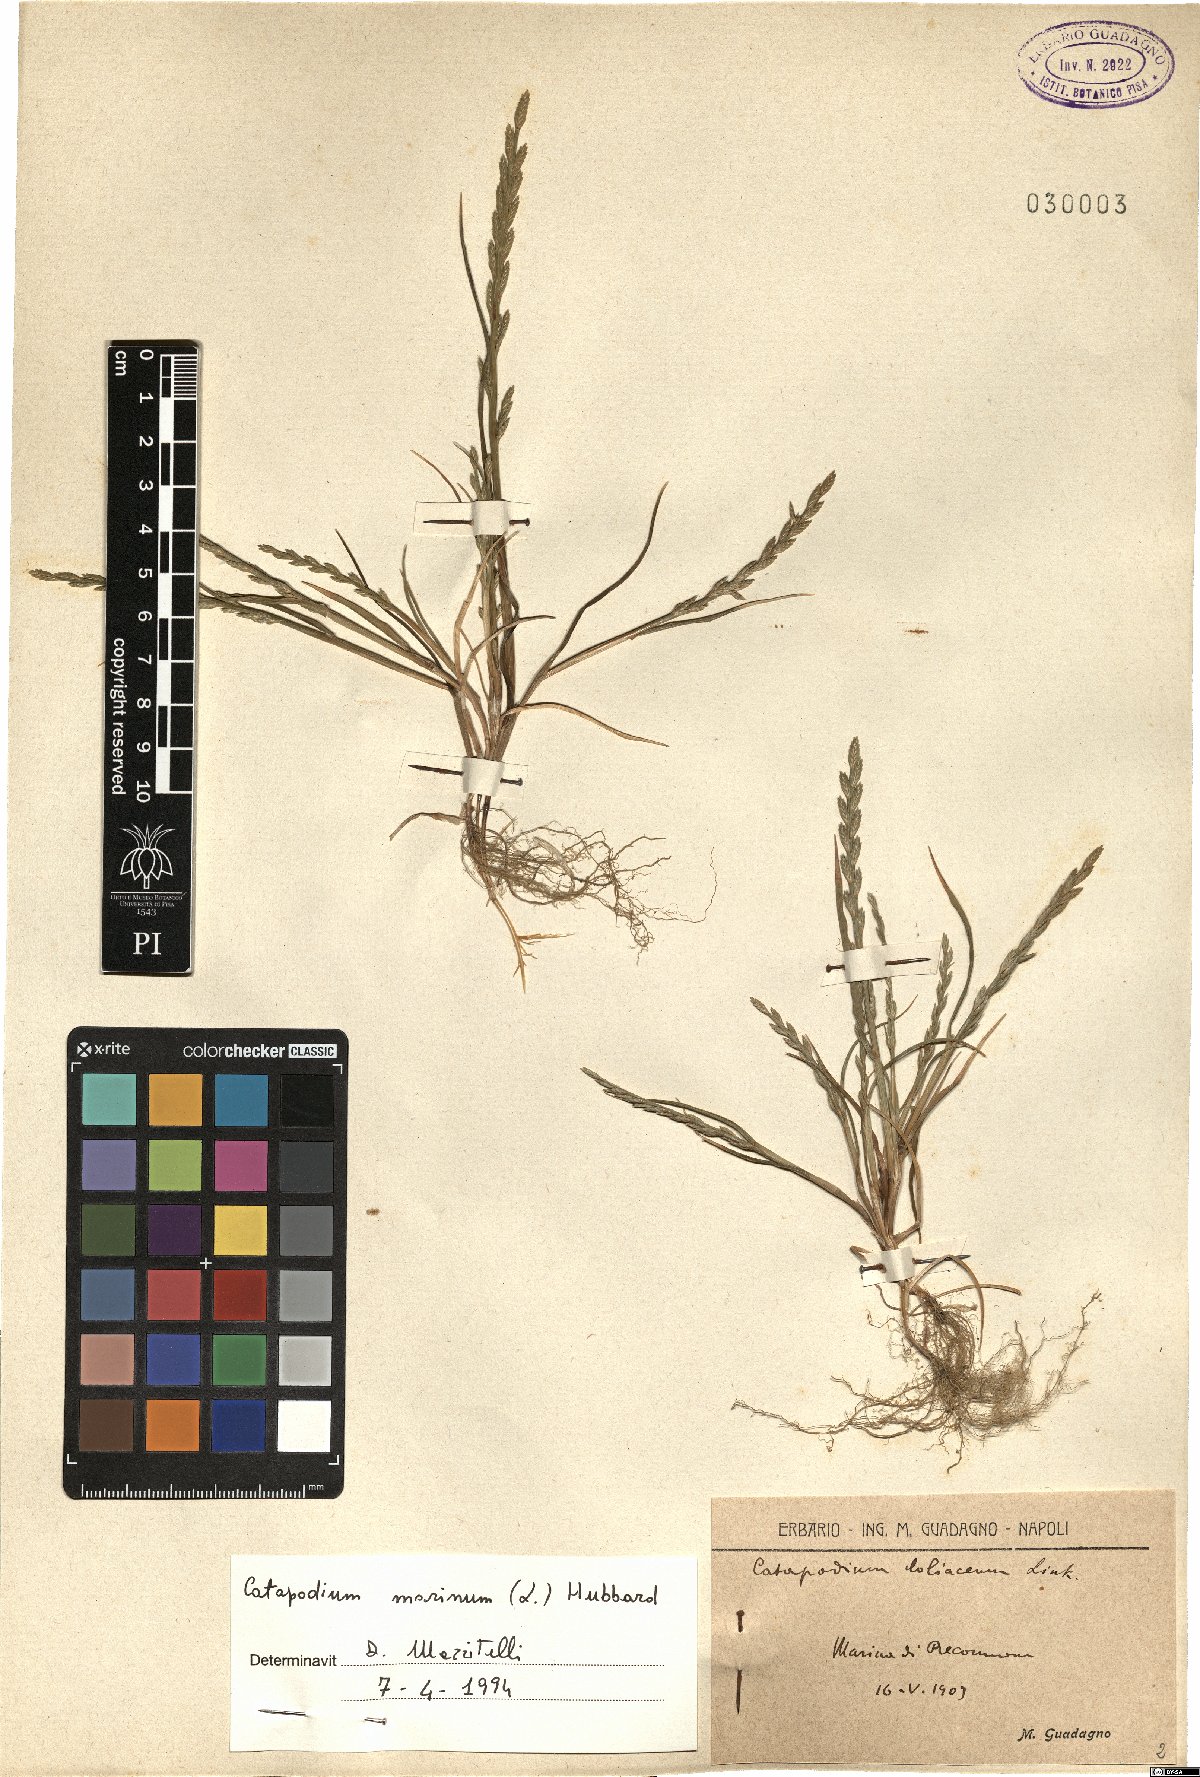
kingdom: Plantae
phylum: Tracheophyta
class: Liliopsida
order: Poales
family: Poaceae
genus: Catapodium
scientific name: Catapodium marinum
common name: Sea fern-grass
